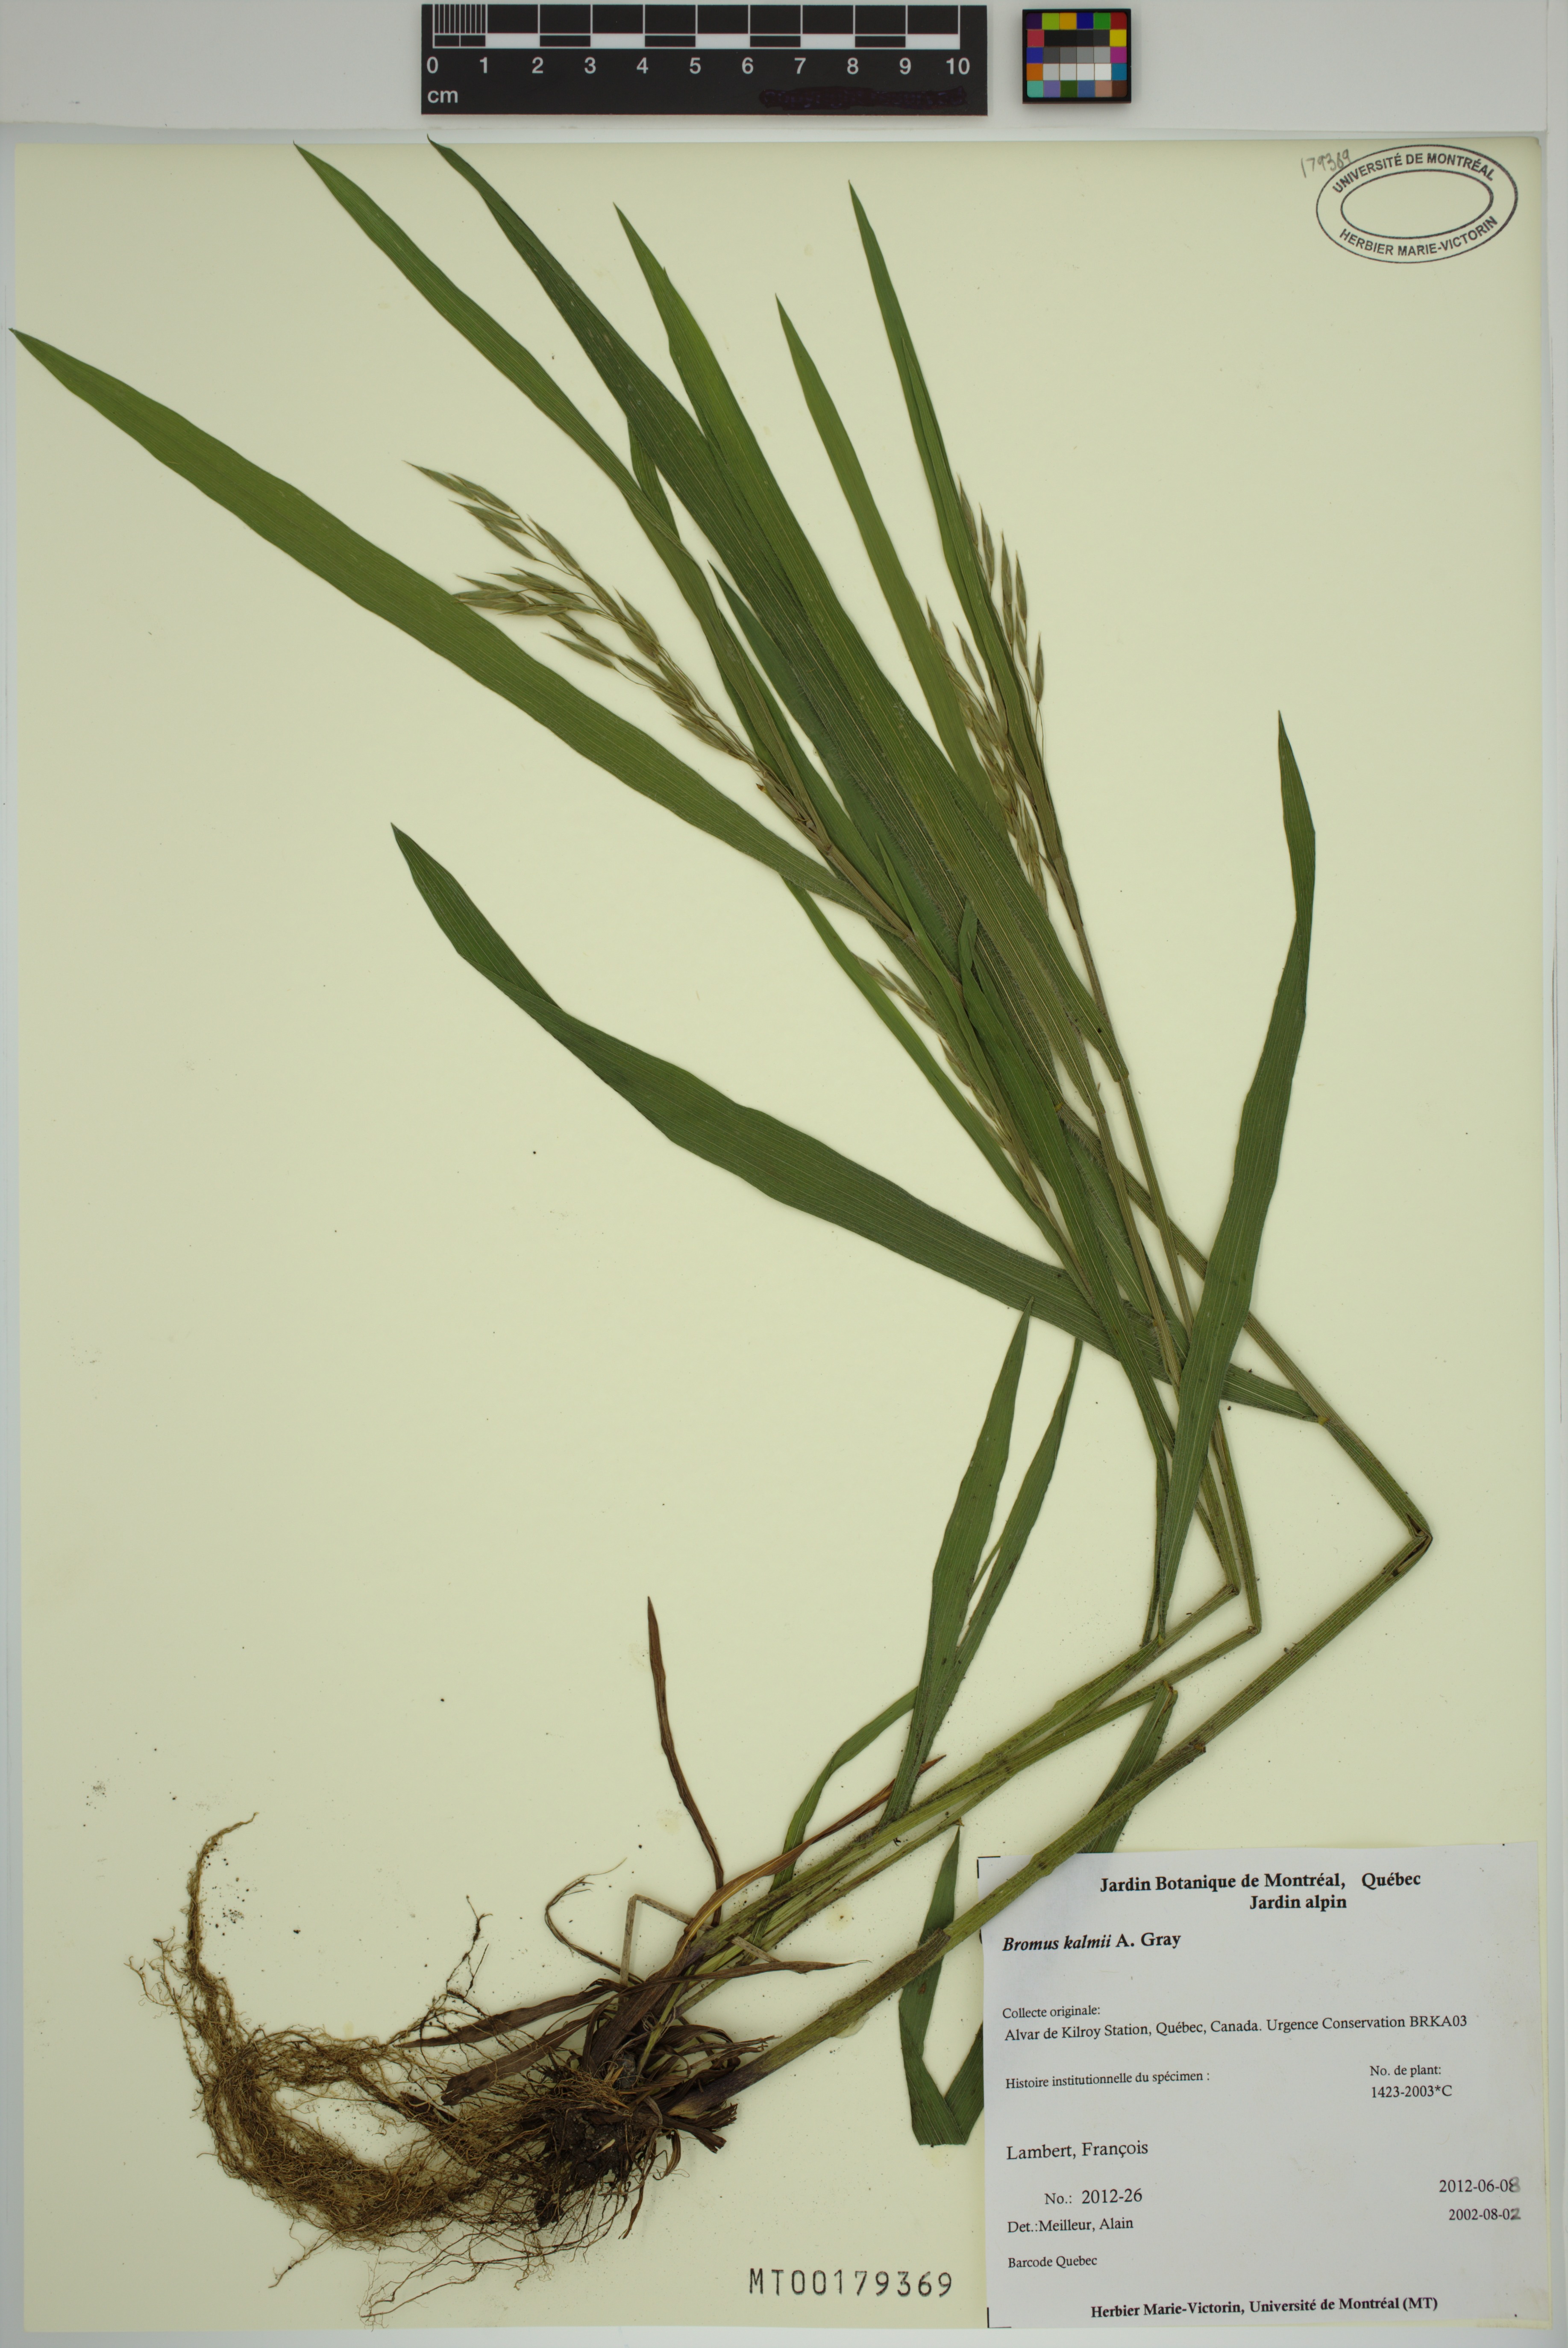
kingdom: Plantae
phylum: Tracheophyta
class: Liliopsida
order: Poales
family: Poaceae
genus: Bromus
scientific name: Bromus kalmii
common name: Kalm brome
